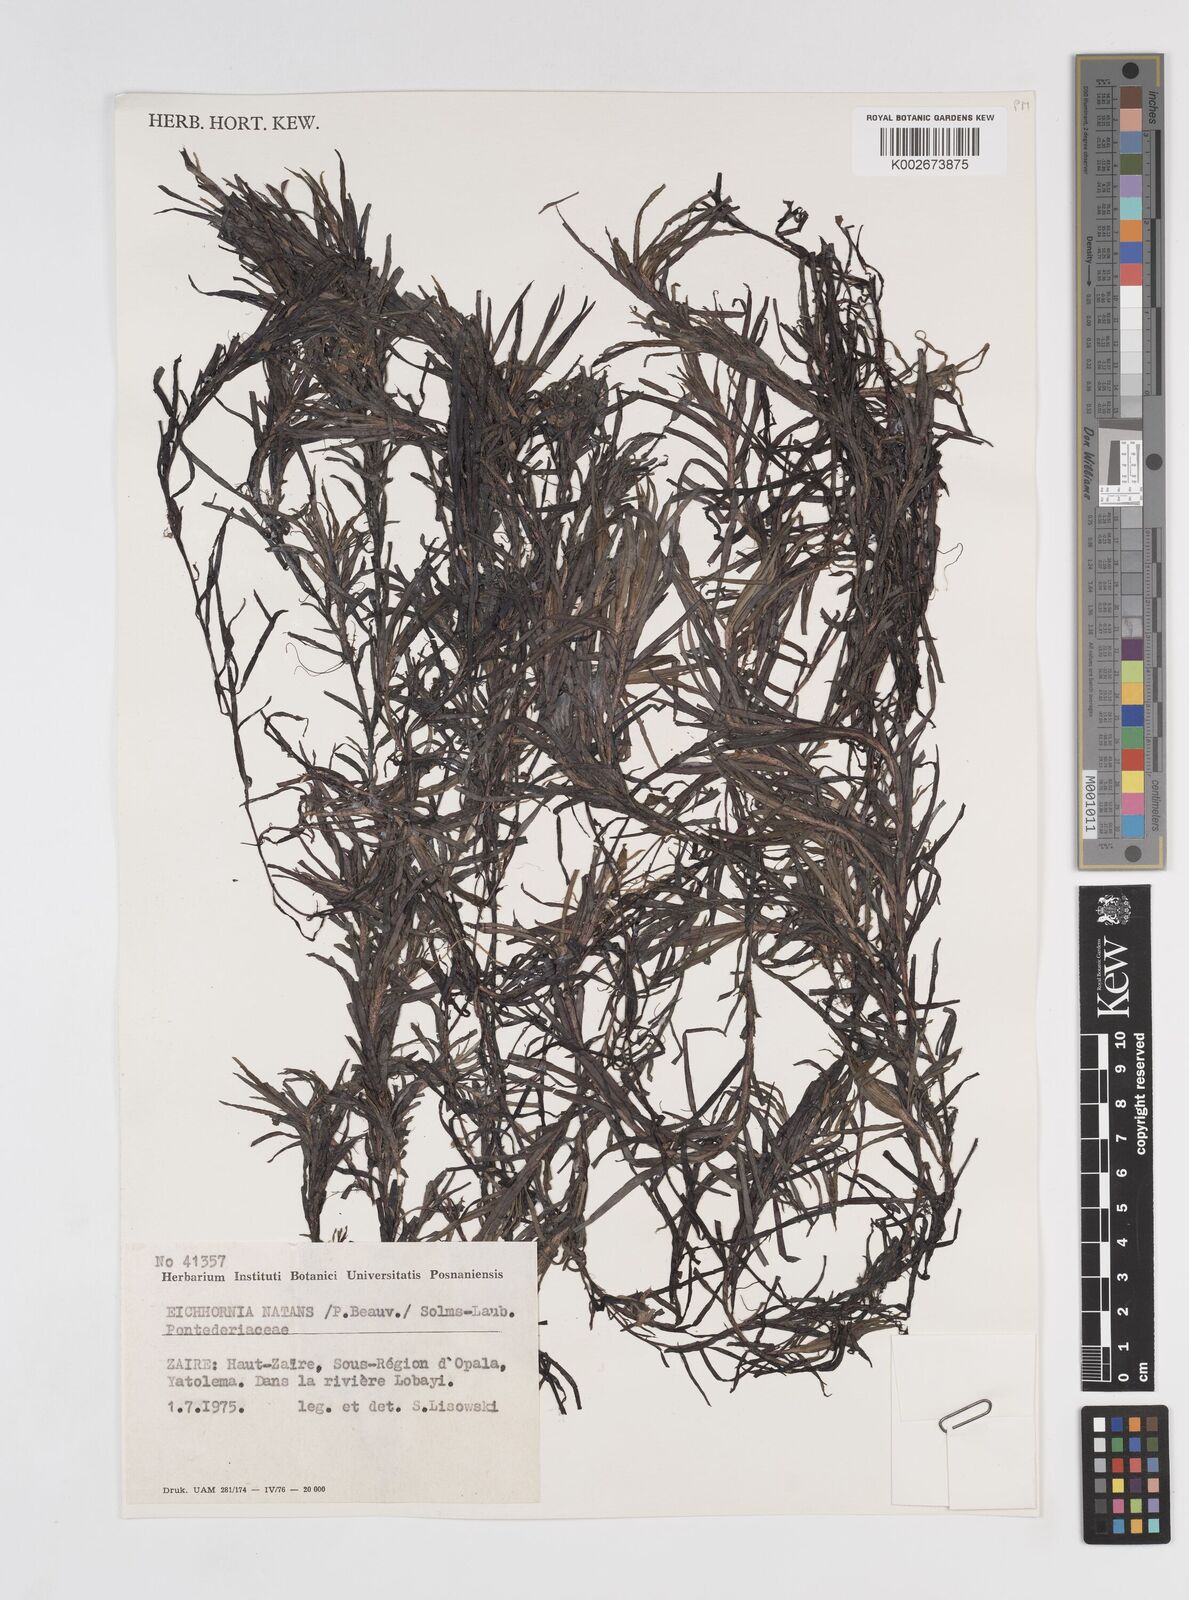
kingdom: Plantae
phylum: Tracheophyta
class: Liliopsida
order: Commelinales
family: Pontederiaceae
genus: Pontederia
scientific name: Pontederia natans
